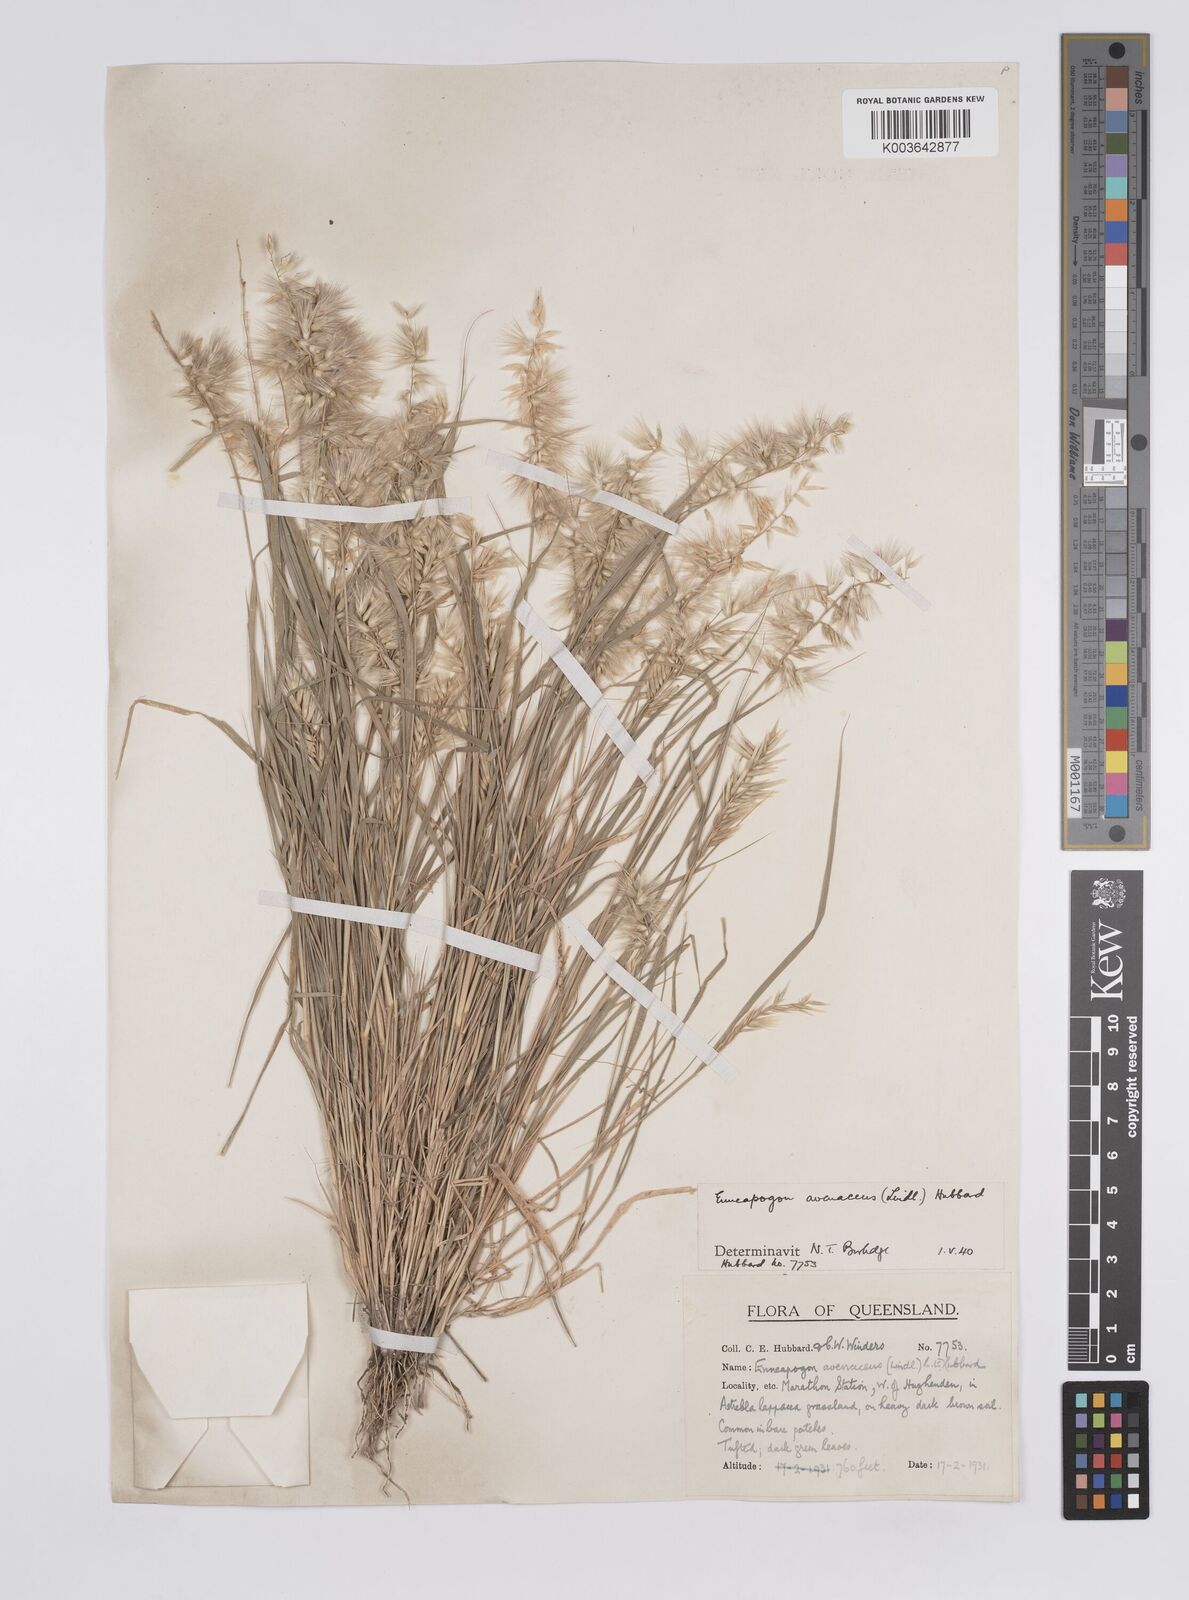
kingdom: Plantae
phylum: Tracheophyta
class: Liliopsida
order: Poales
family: Poaceae
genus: Enneapogon
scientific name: Enneapogon avenaceus
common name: Hairy oat grass
